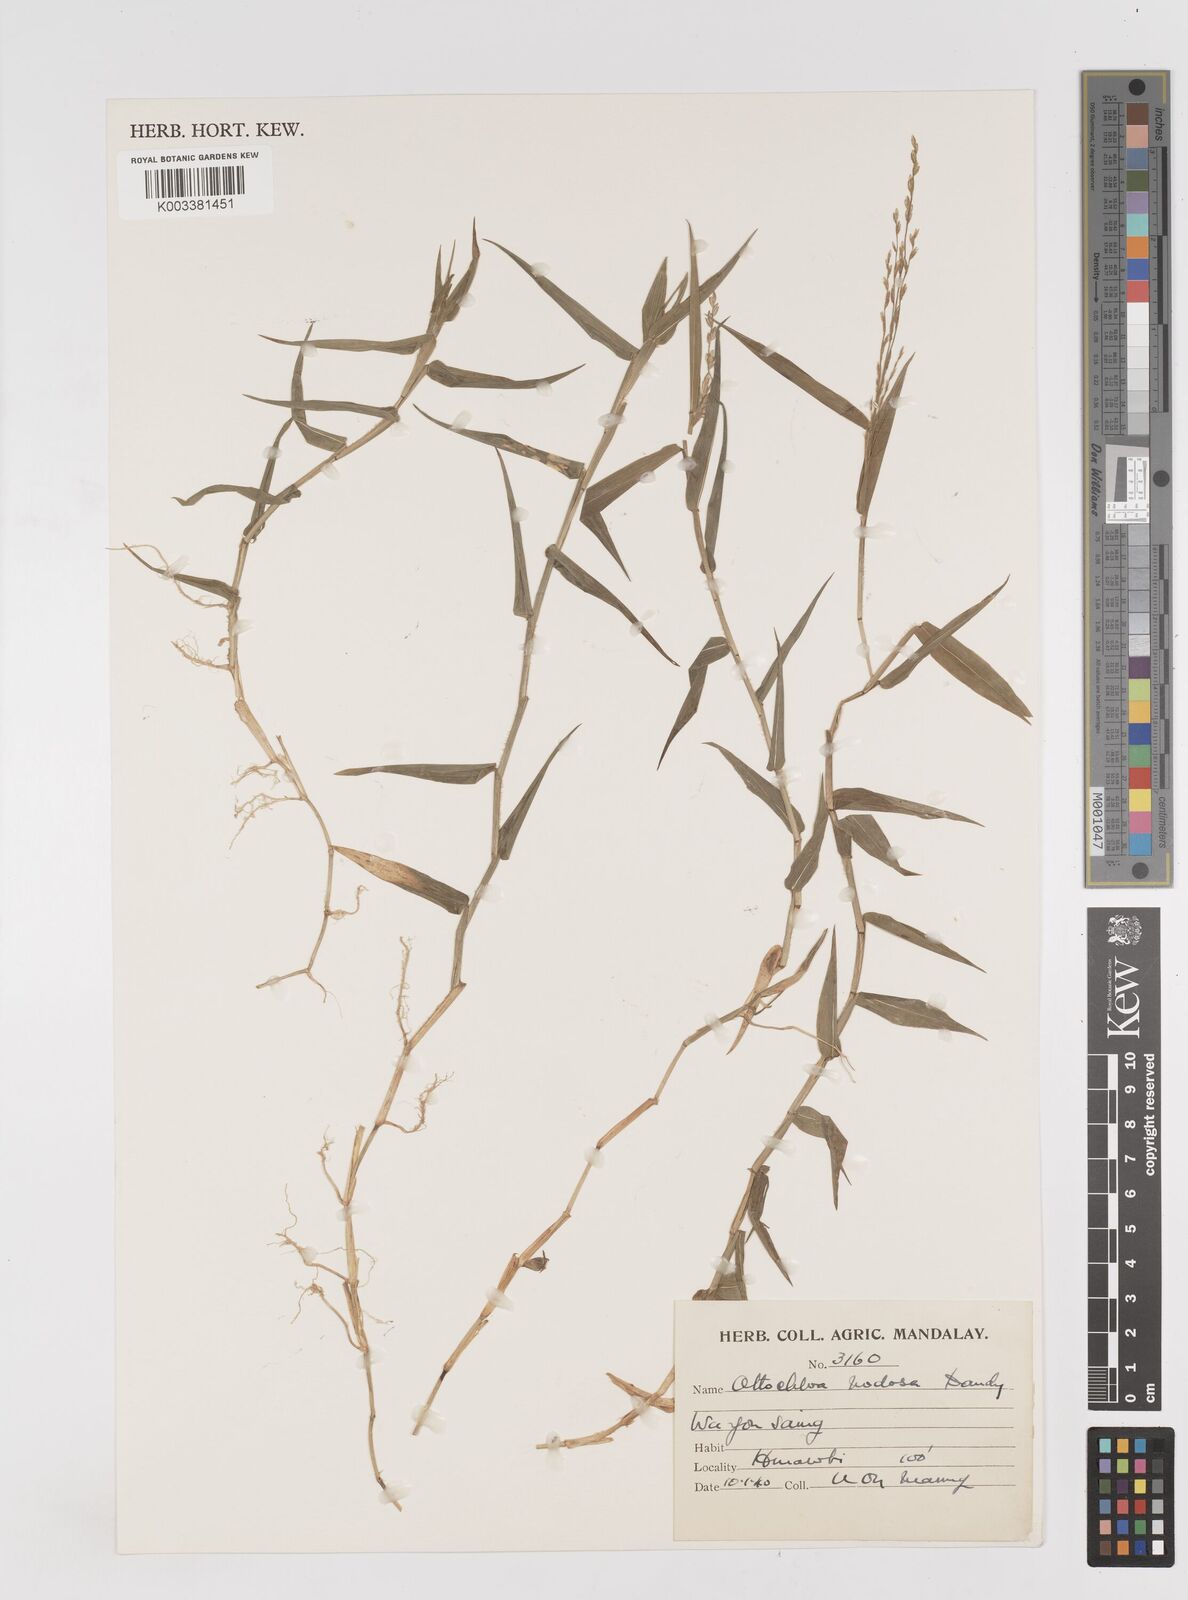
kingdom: Plantae
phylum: Tracheophyta
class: Liliopsida
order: Poales
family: Poaceae
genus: Ottochloa
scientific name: Ottochloa nodosa
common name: Slender-panic grass
